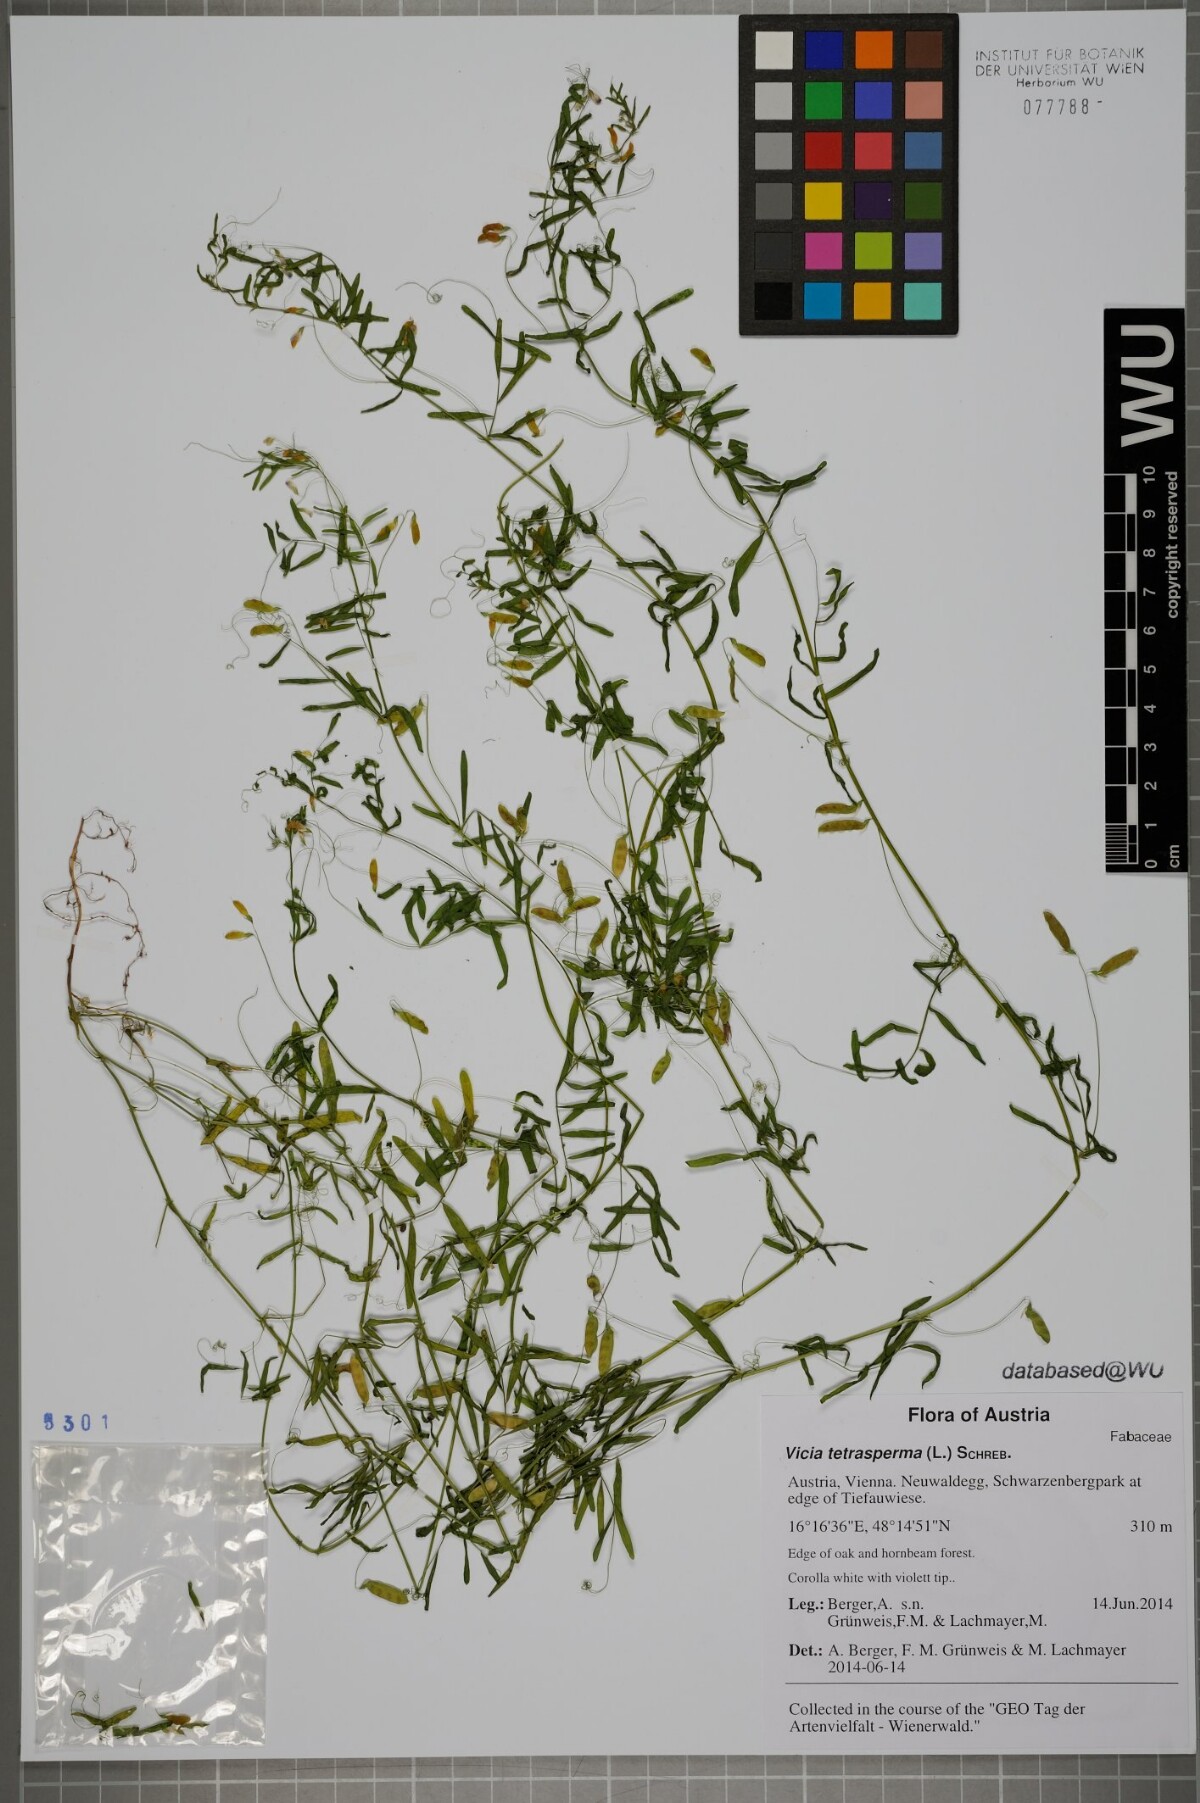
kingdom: Plantae
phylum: Tracheophyta
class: Magnoliopsida
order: Fabales
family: Fabaceae
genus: Vicia
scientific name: Vicia tetrasperma
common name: Smooth tare
